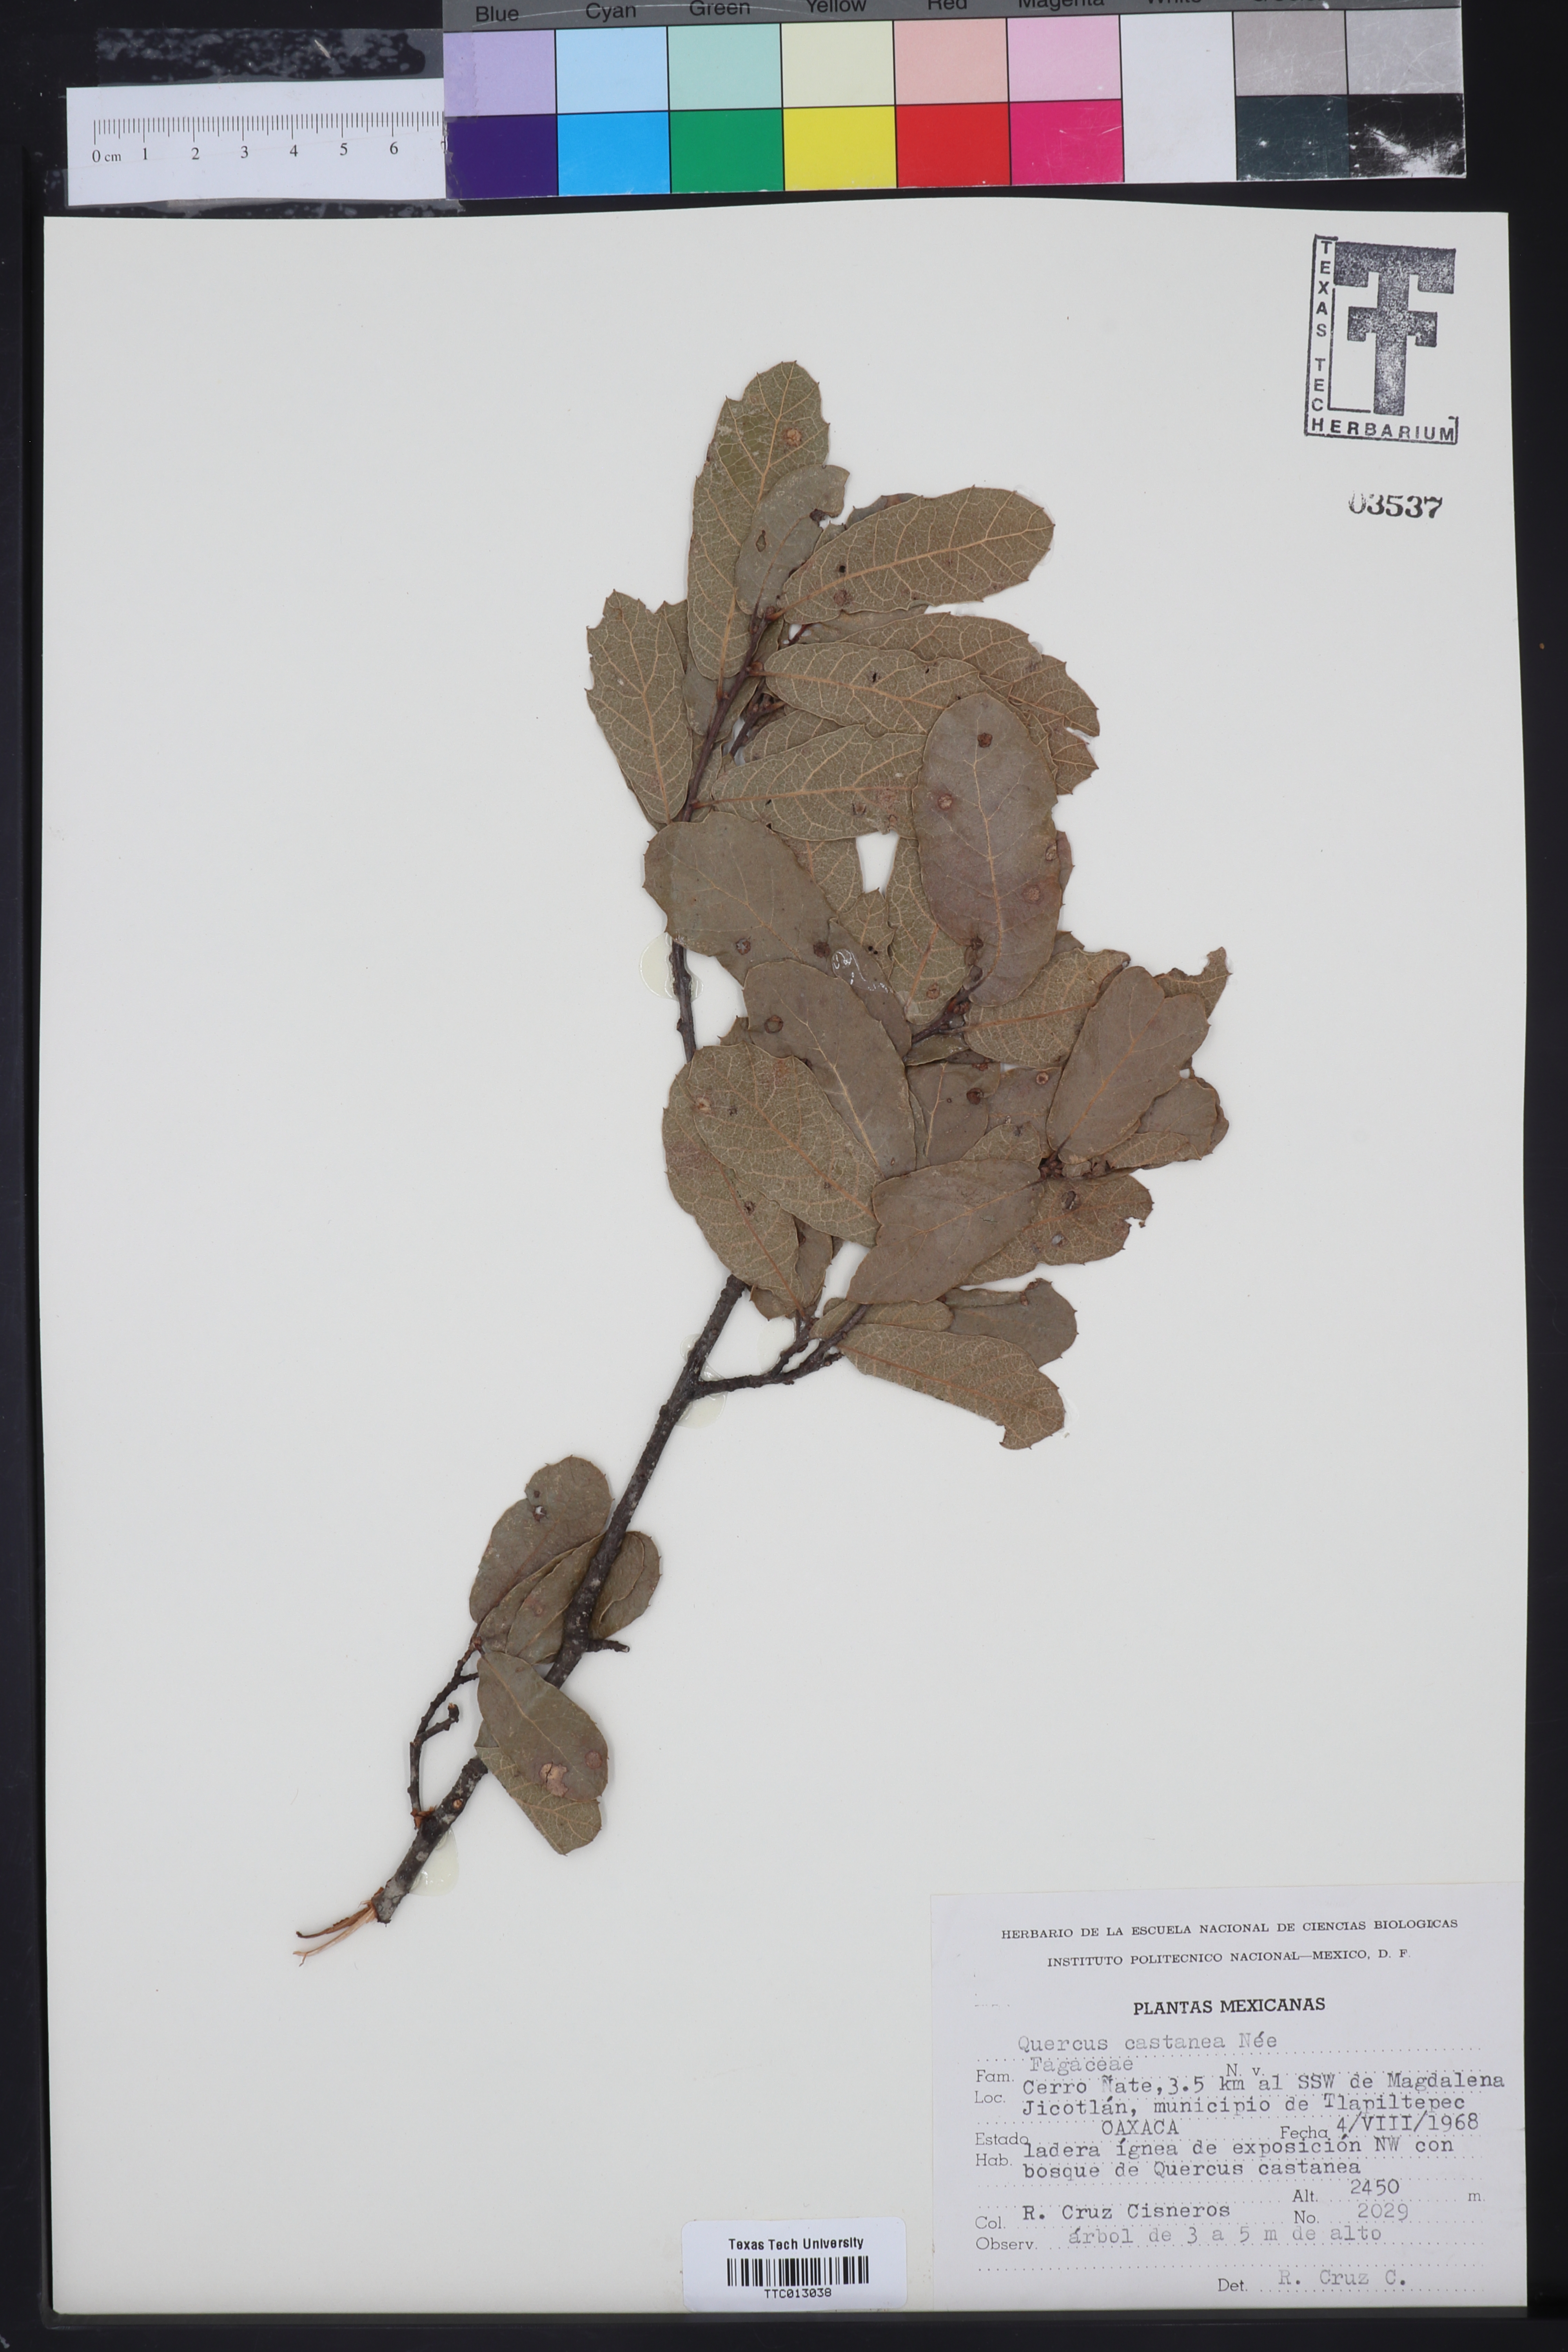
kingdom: Plantae
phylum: Tracheophyta
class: Magnoliopsida
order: Fagales
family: Fagaceae
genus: Quercus
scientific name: Quercus castanea
